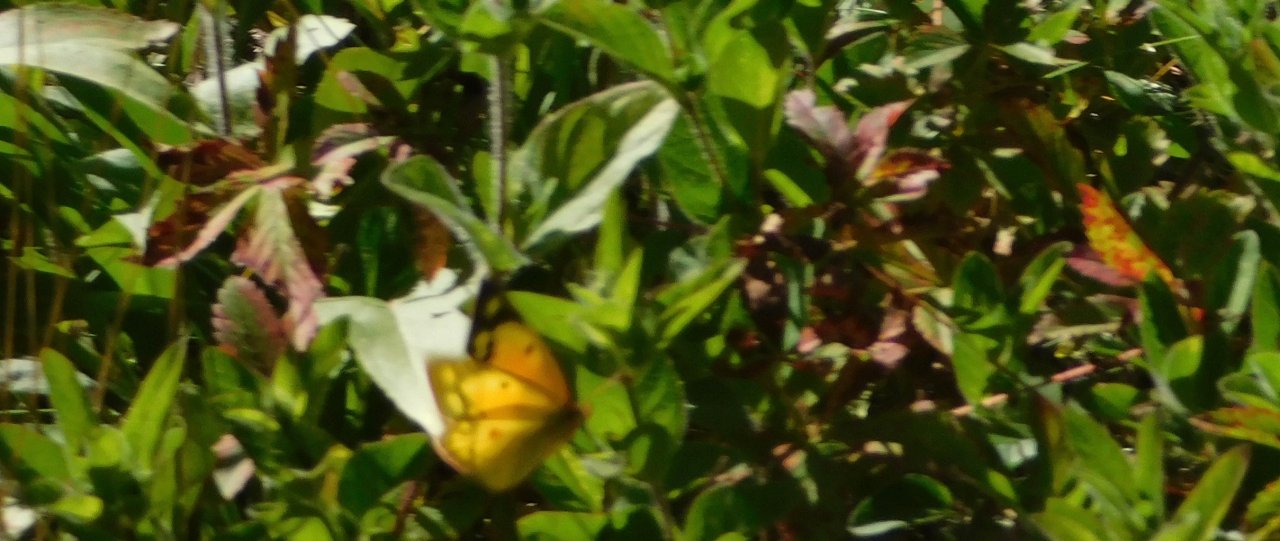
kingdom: Animalia
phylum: Arthropoda
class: Insecta
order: Lepidoptera
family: Pieridae
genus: Colias
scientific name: Colias eurytheme
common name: Orange Sulphur
